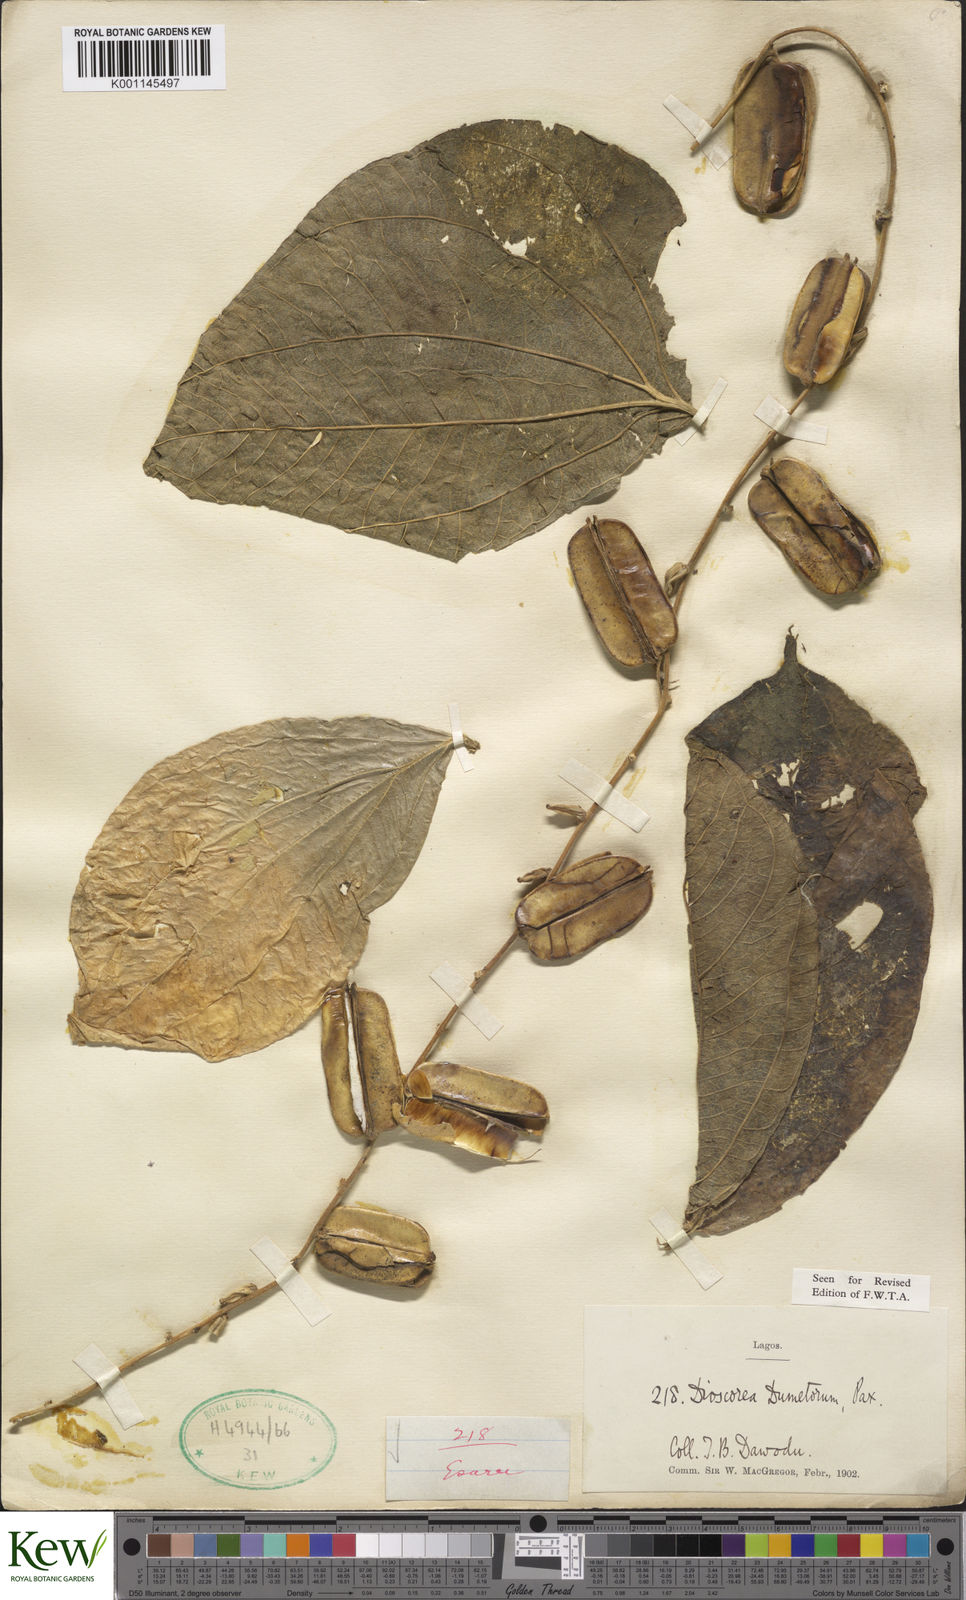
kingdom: Plantae
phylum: Tracheophyta
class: Liliopsida
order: Dioscoreales
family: Dioscoreaceae
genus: Dioscorea
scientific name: Dioscorea dumetorum
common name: African bitter yam
